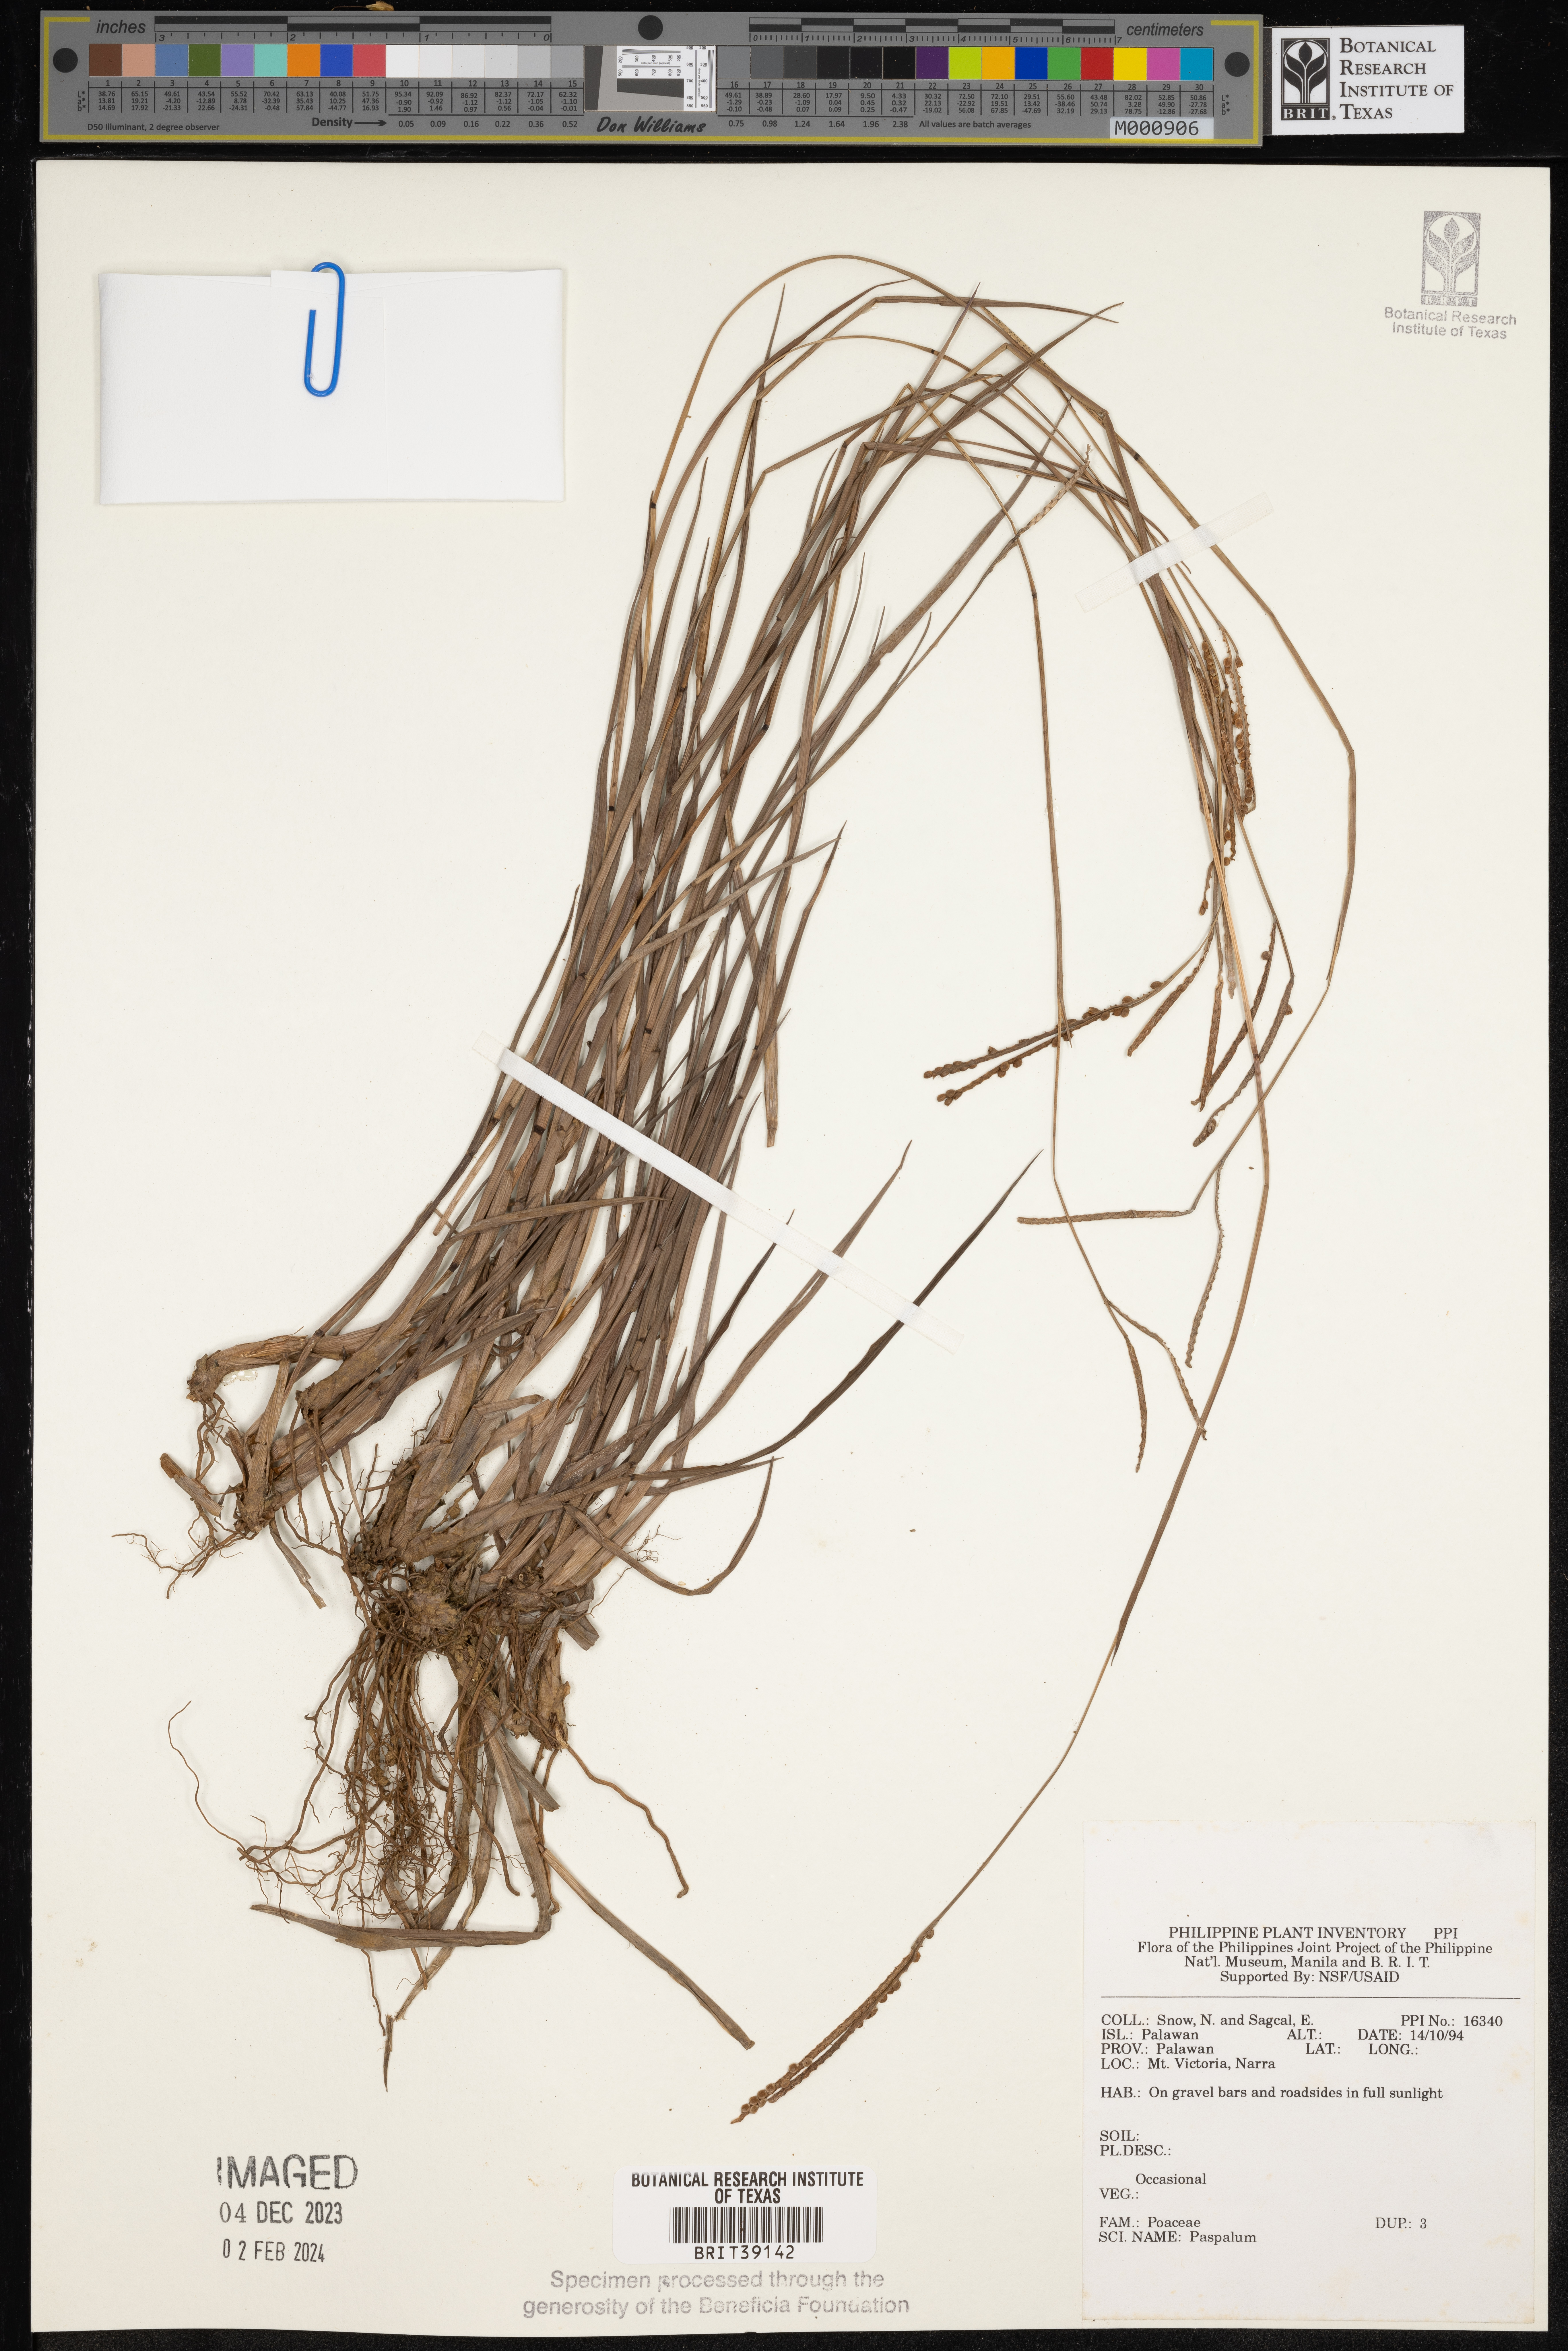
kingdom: Plantae
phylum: Tracheophyta
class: Liliopsida
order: Poales
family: Poaceae
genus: Paspalum
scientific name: Paspalum
